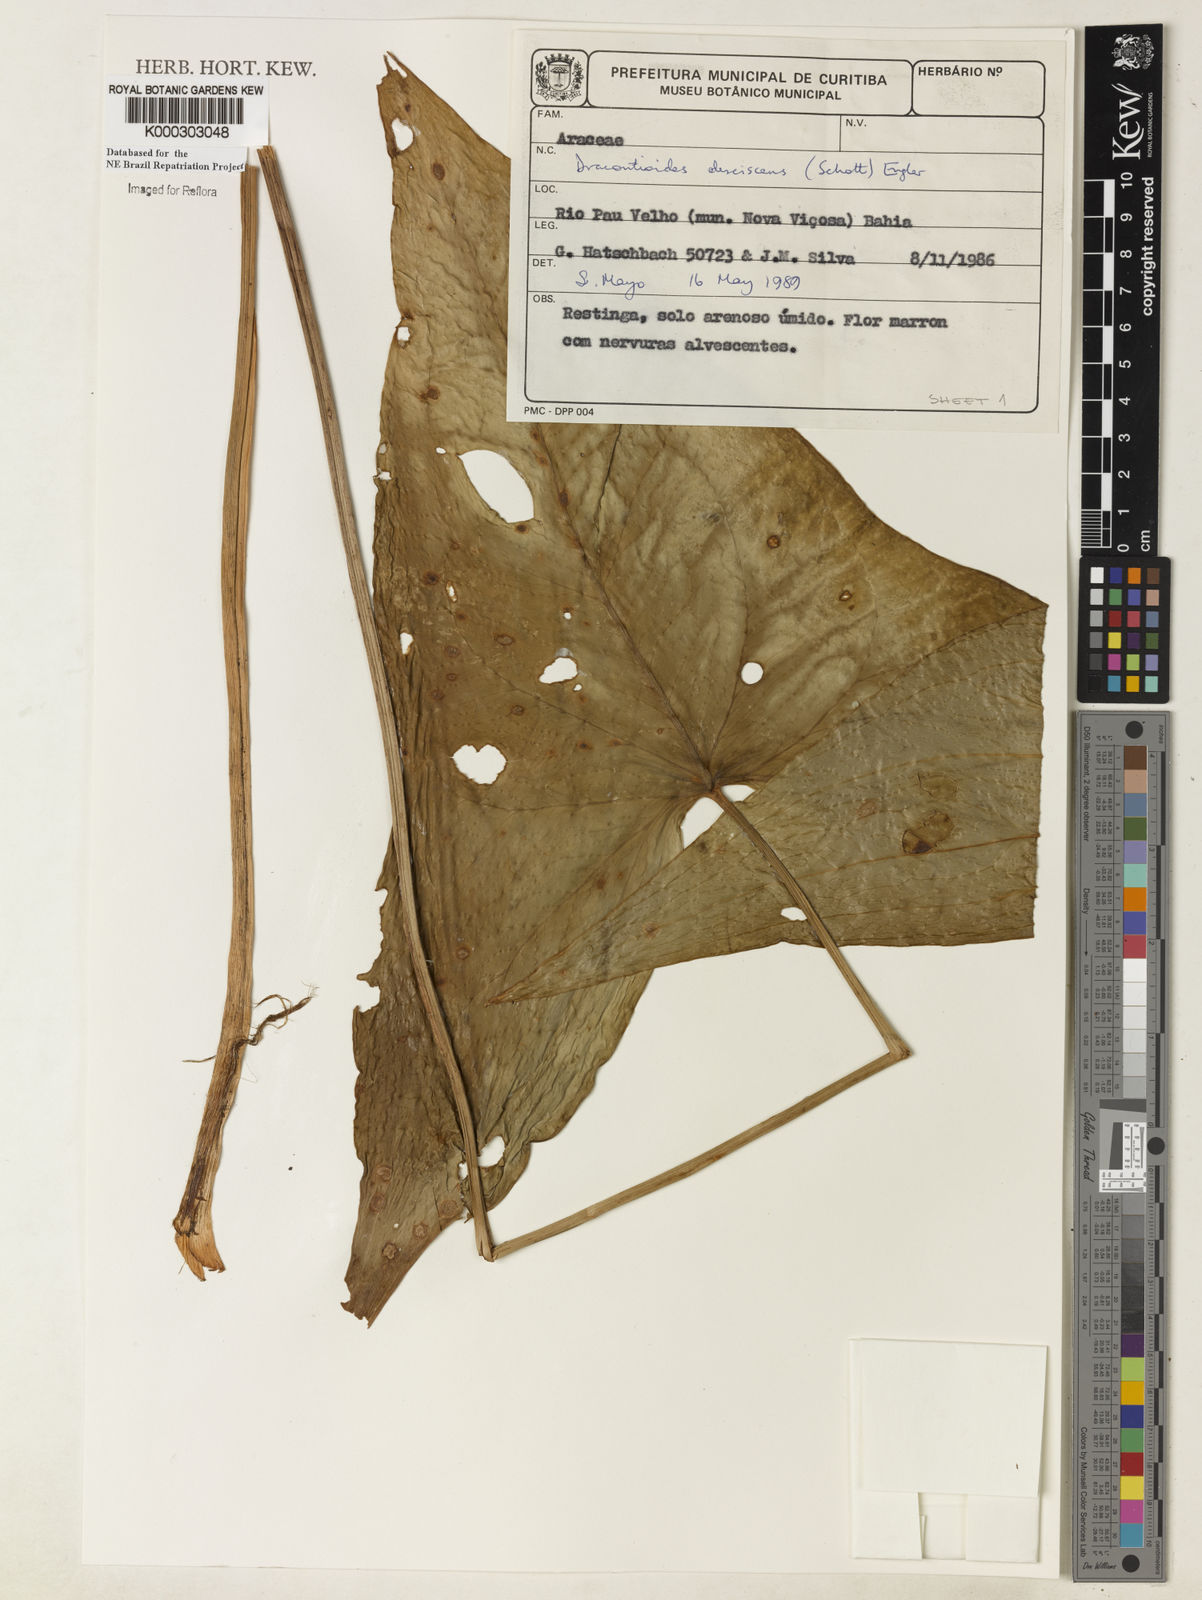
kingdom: Plantae
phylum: Tracheophyta
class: Liliopsida
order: Alismatales
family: Araceae
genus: Dracontioides
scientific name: Dracontioides desciscens
